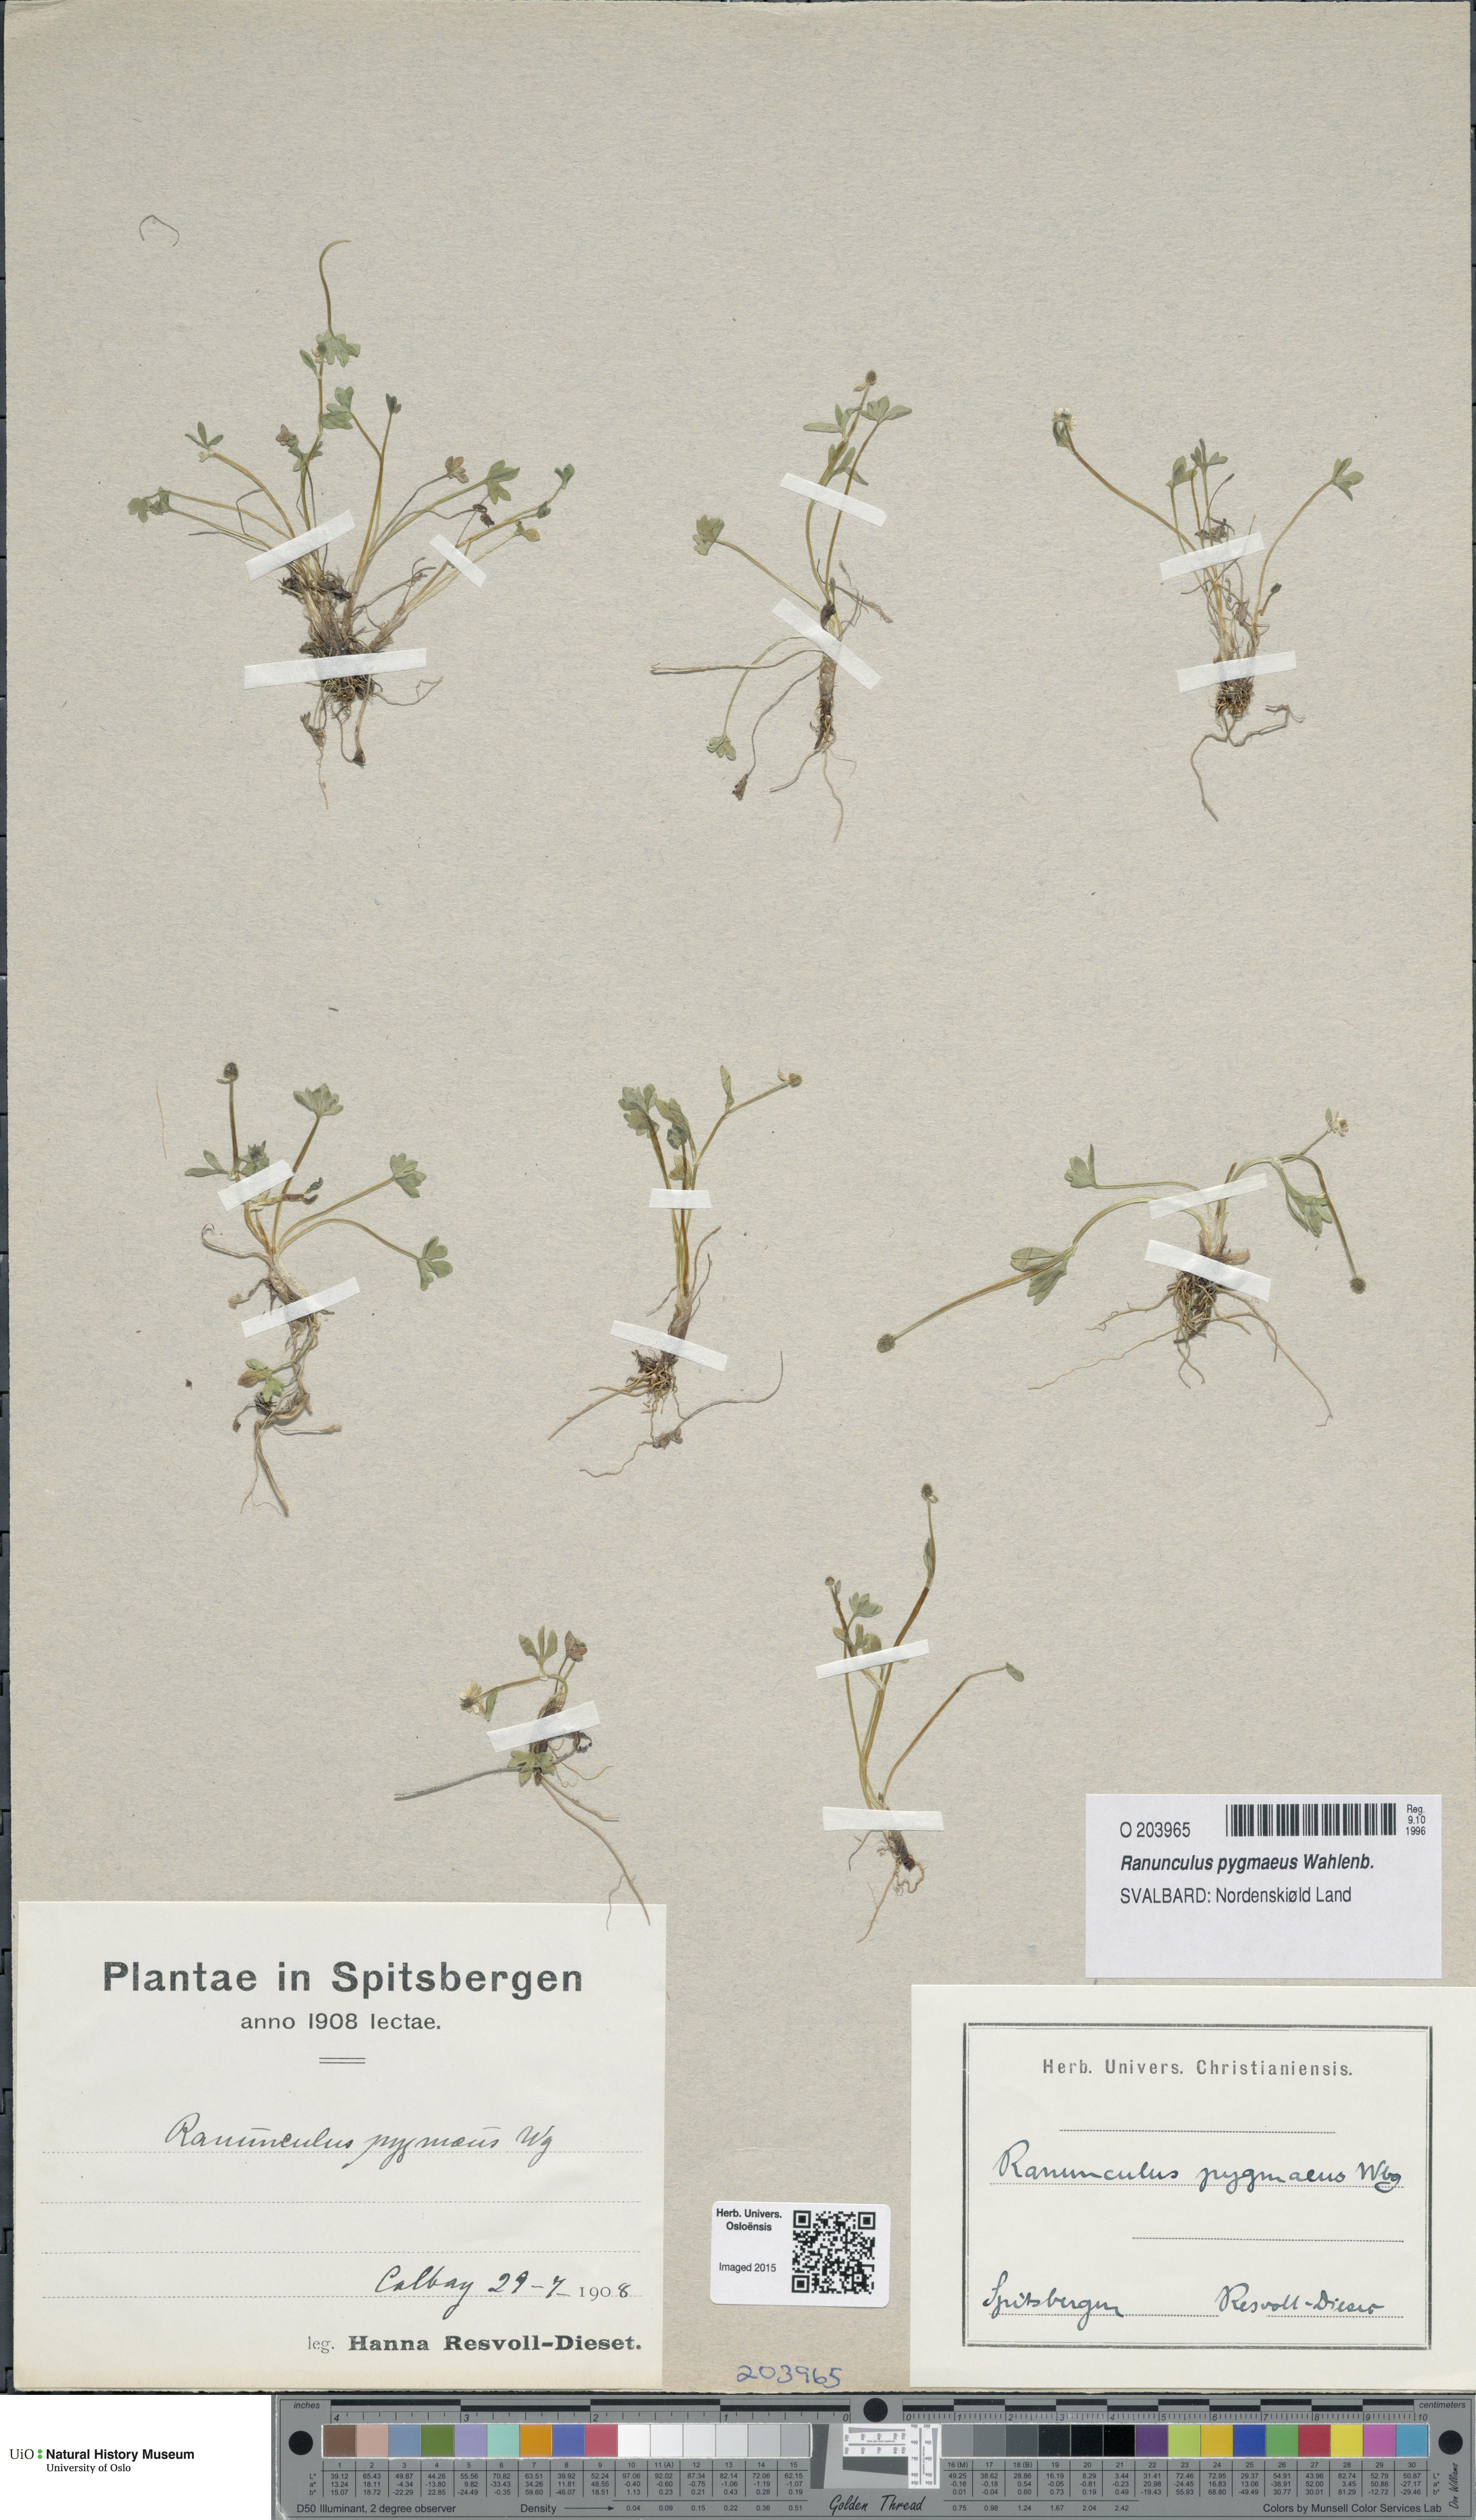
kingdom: Plantae
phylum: Tracheophyta
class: Magnoliopsida
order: Ranunculales
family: Ranunculaceae
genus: Ranunculus
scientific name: Ranunculus pygmaeus
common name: Dwarf buttercup
